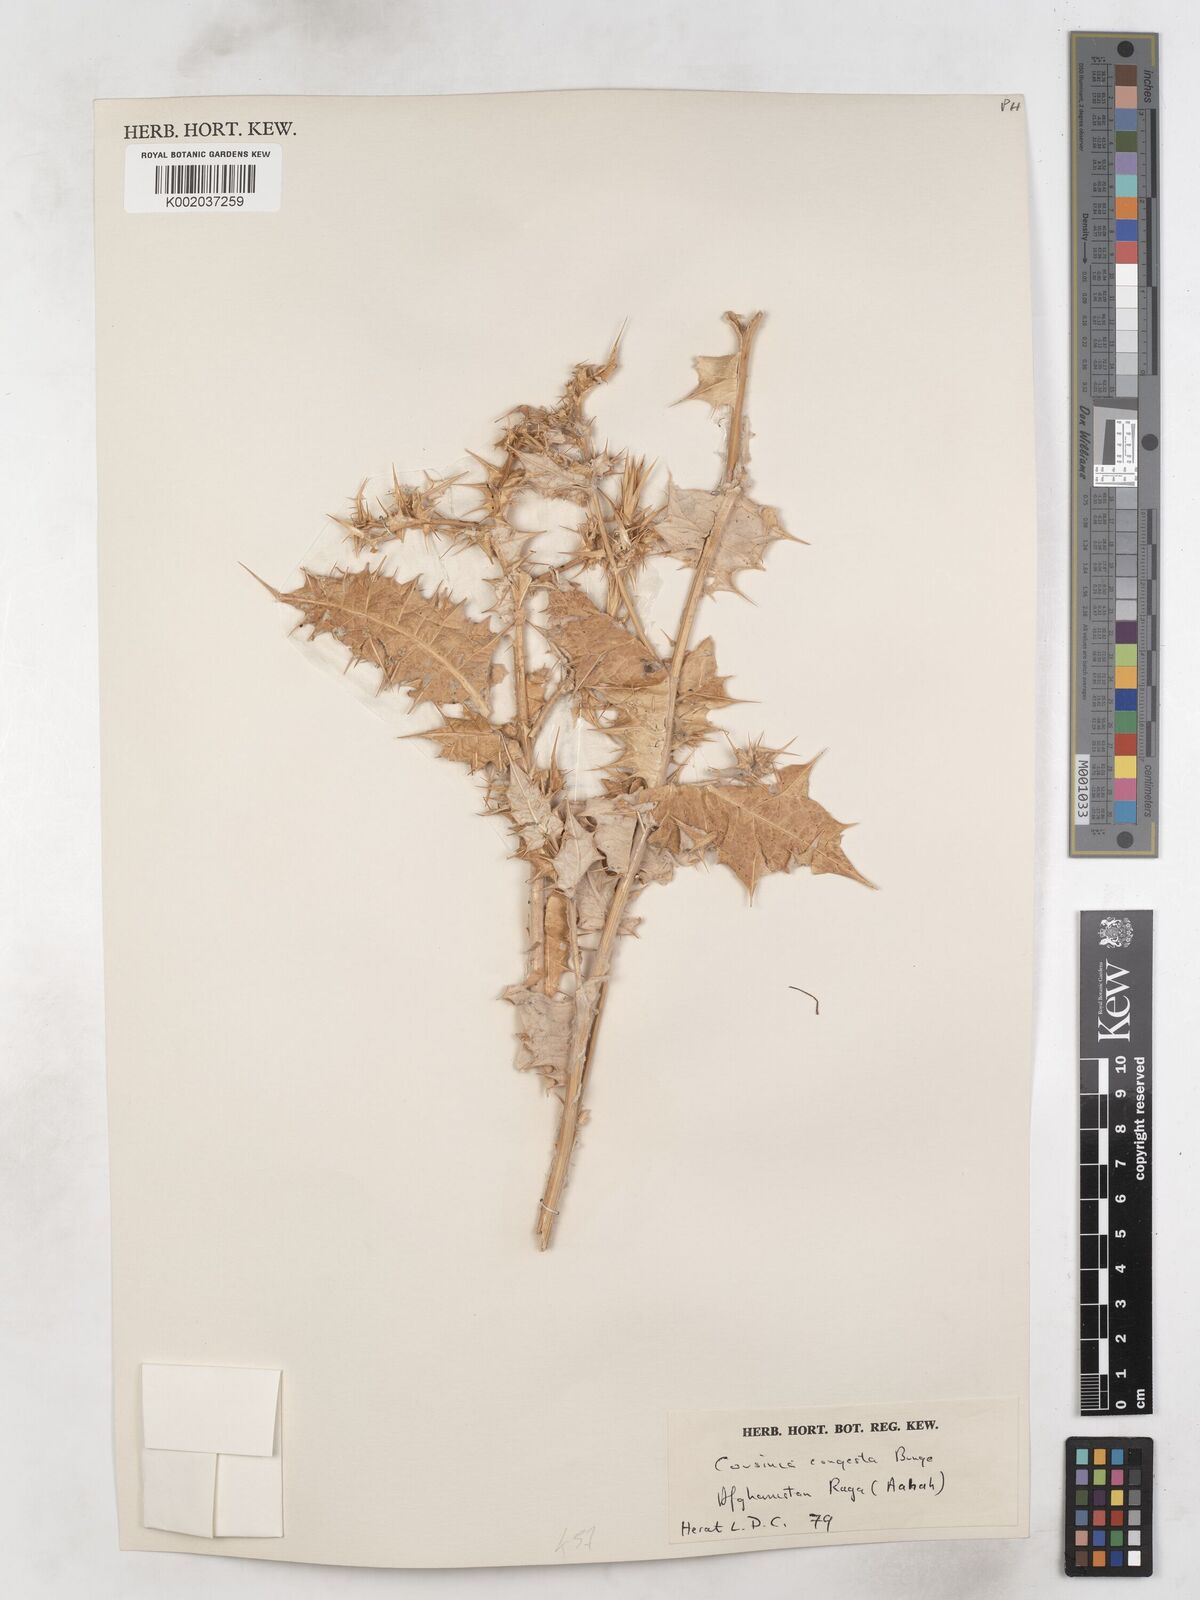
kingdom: Plantae
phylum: Tracheophyta
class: Magnoliopsida
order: Asterales
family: Asteraceae
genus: Cousinia
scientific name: Cousinia congesta
